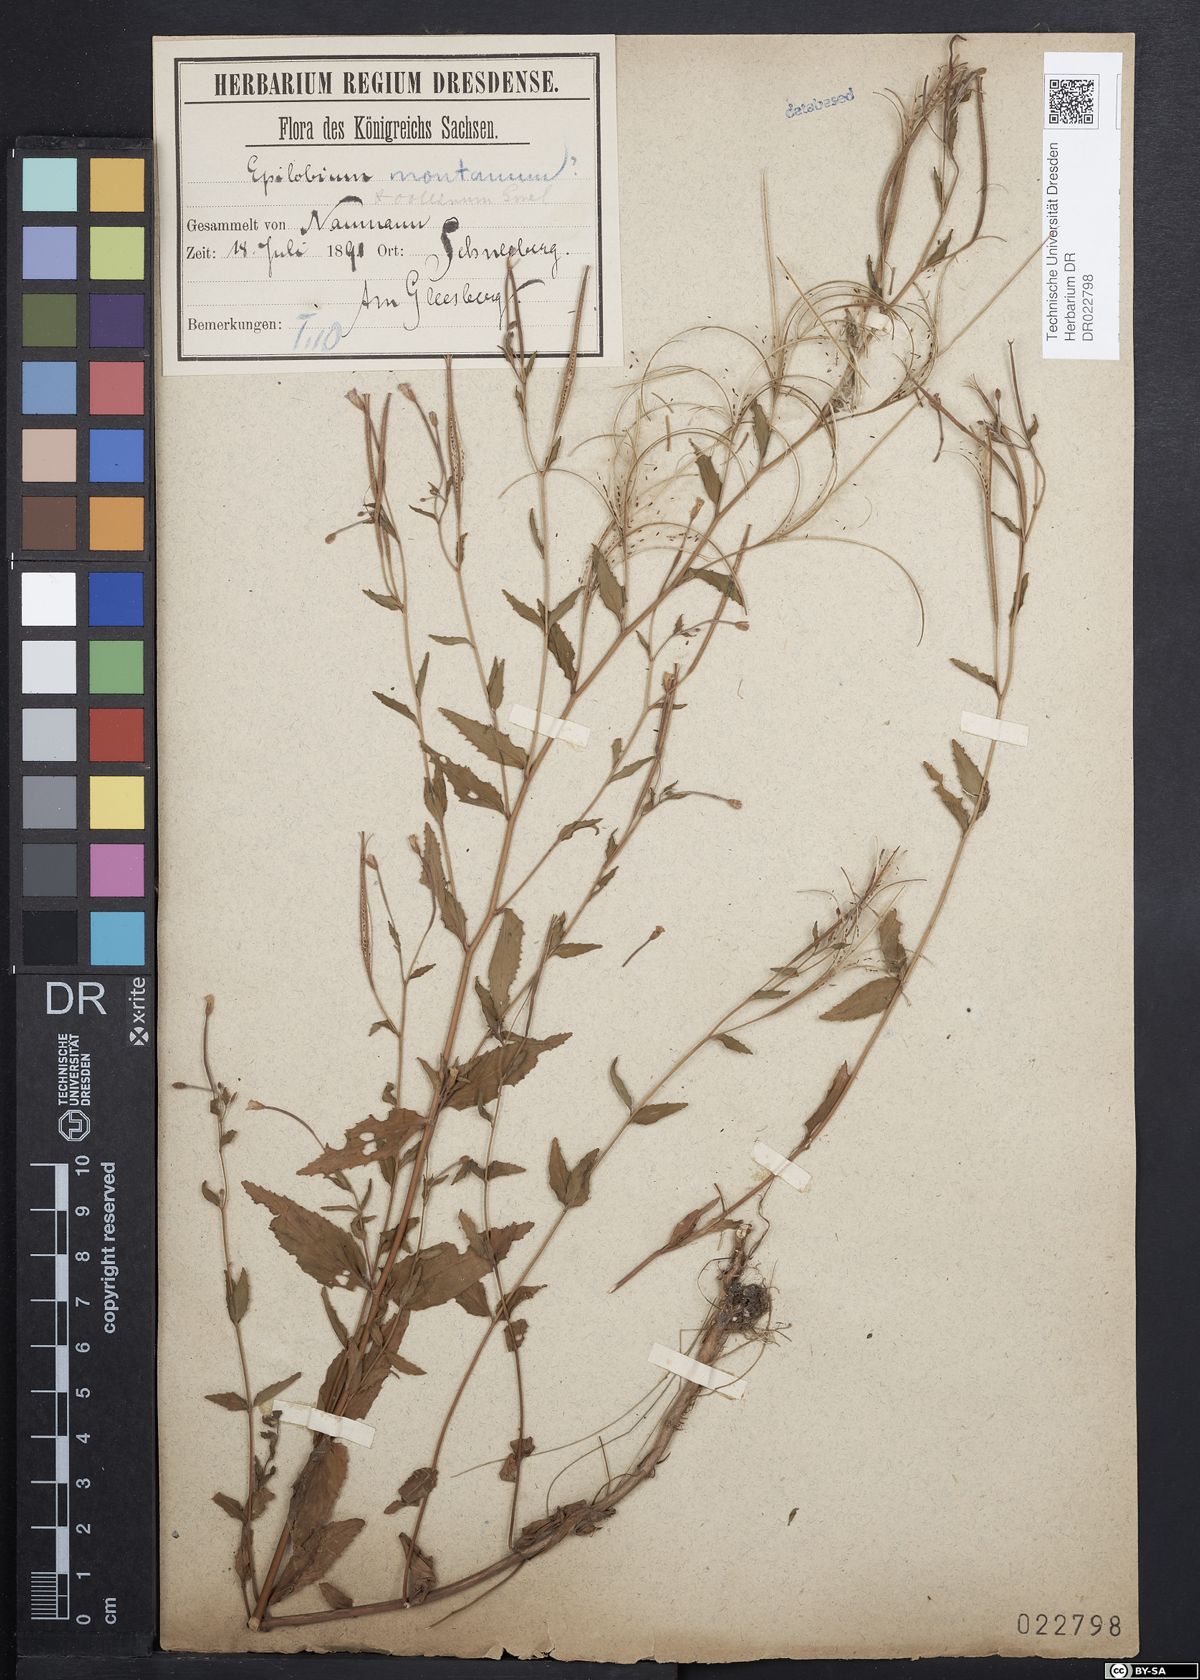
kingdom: Plantae
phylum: Tracheophyta
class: Magnoliopsida
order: Myrtales
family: Onagraceae
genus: Epilobium
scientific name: Epilobium collinum
